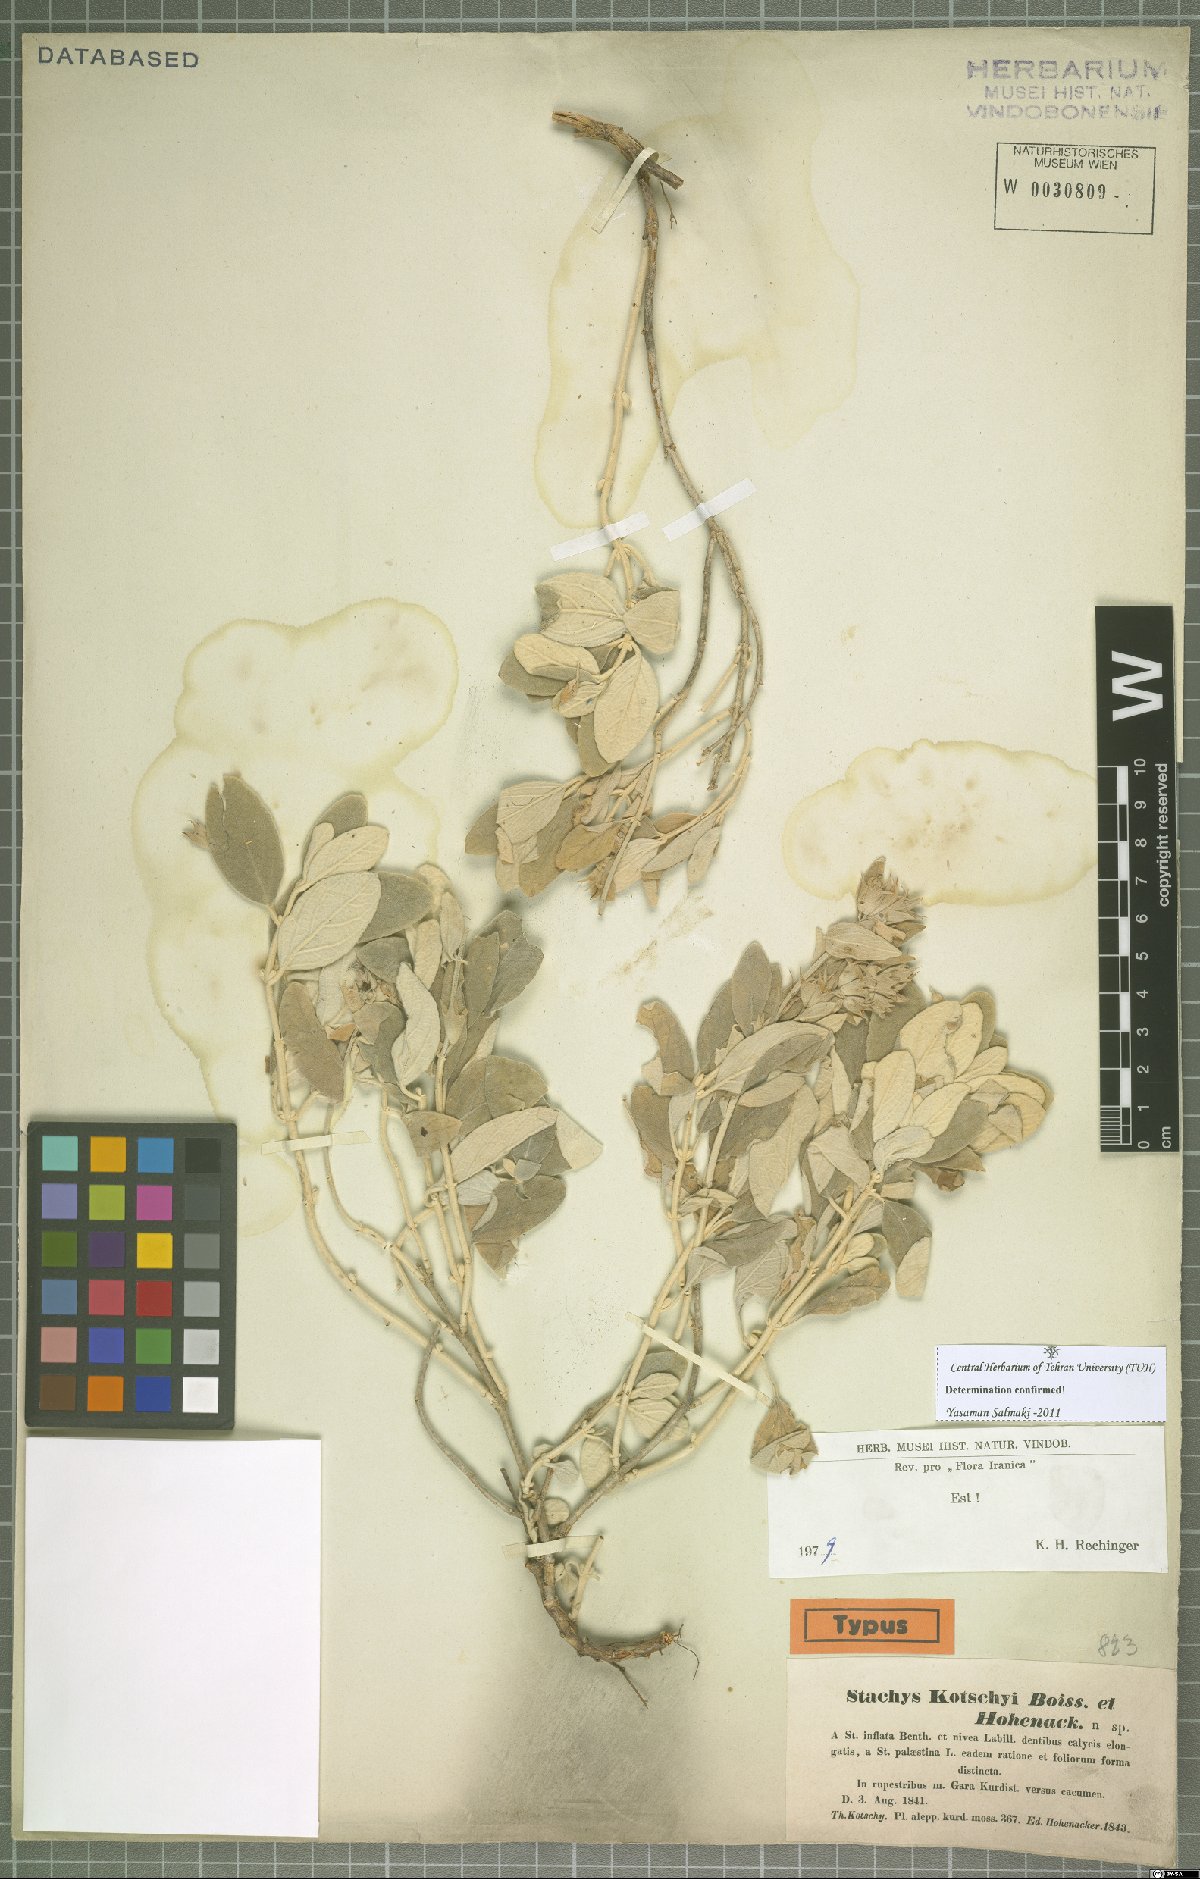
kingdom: Plantae
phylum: Tracheophyta
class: Magnoliopsida
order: Lamiales
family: Lamiaceae
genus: Stachys
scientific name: Stachys kotschyi
